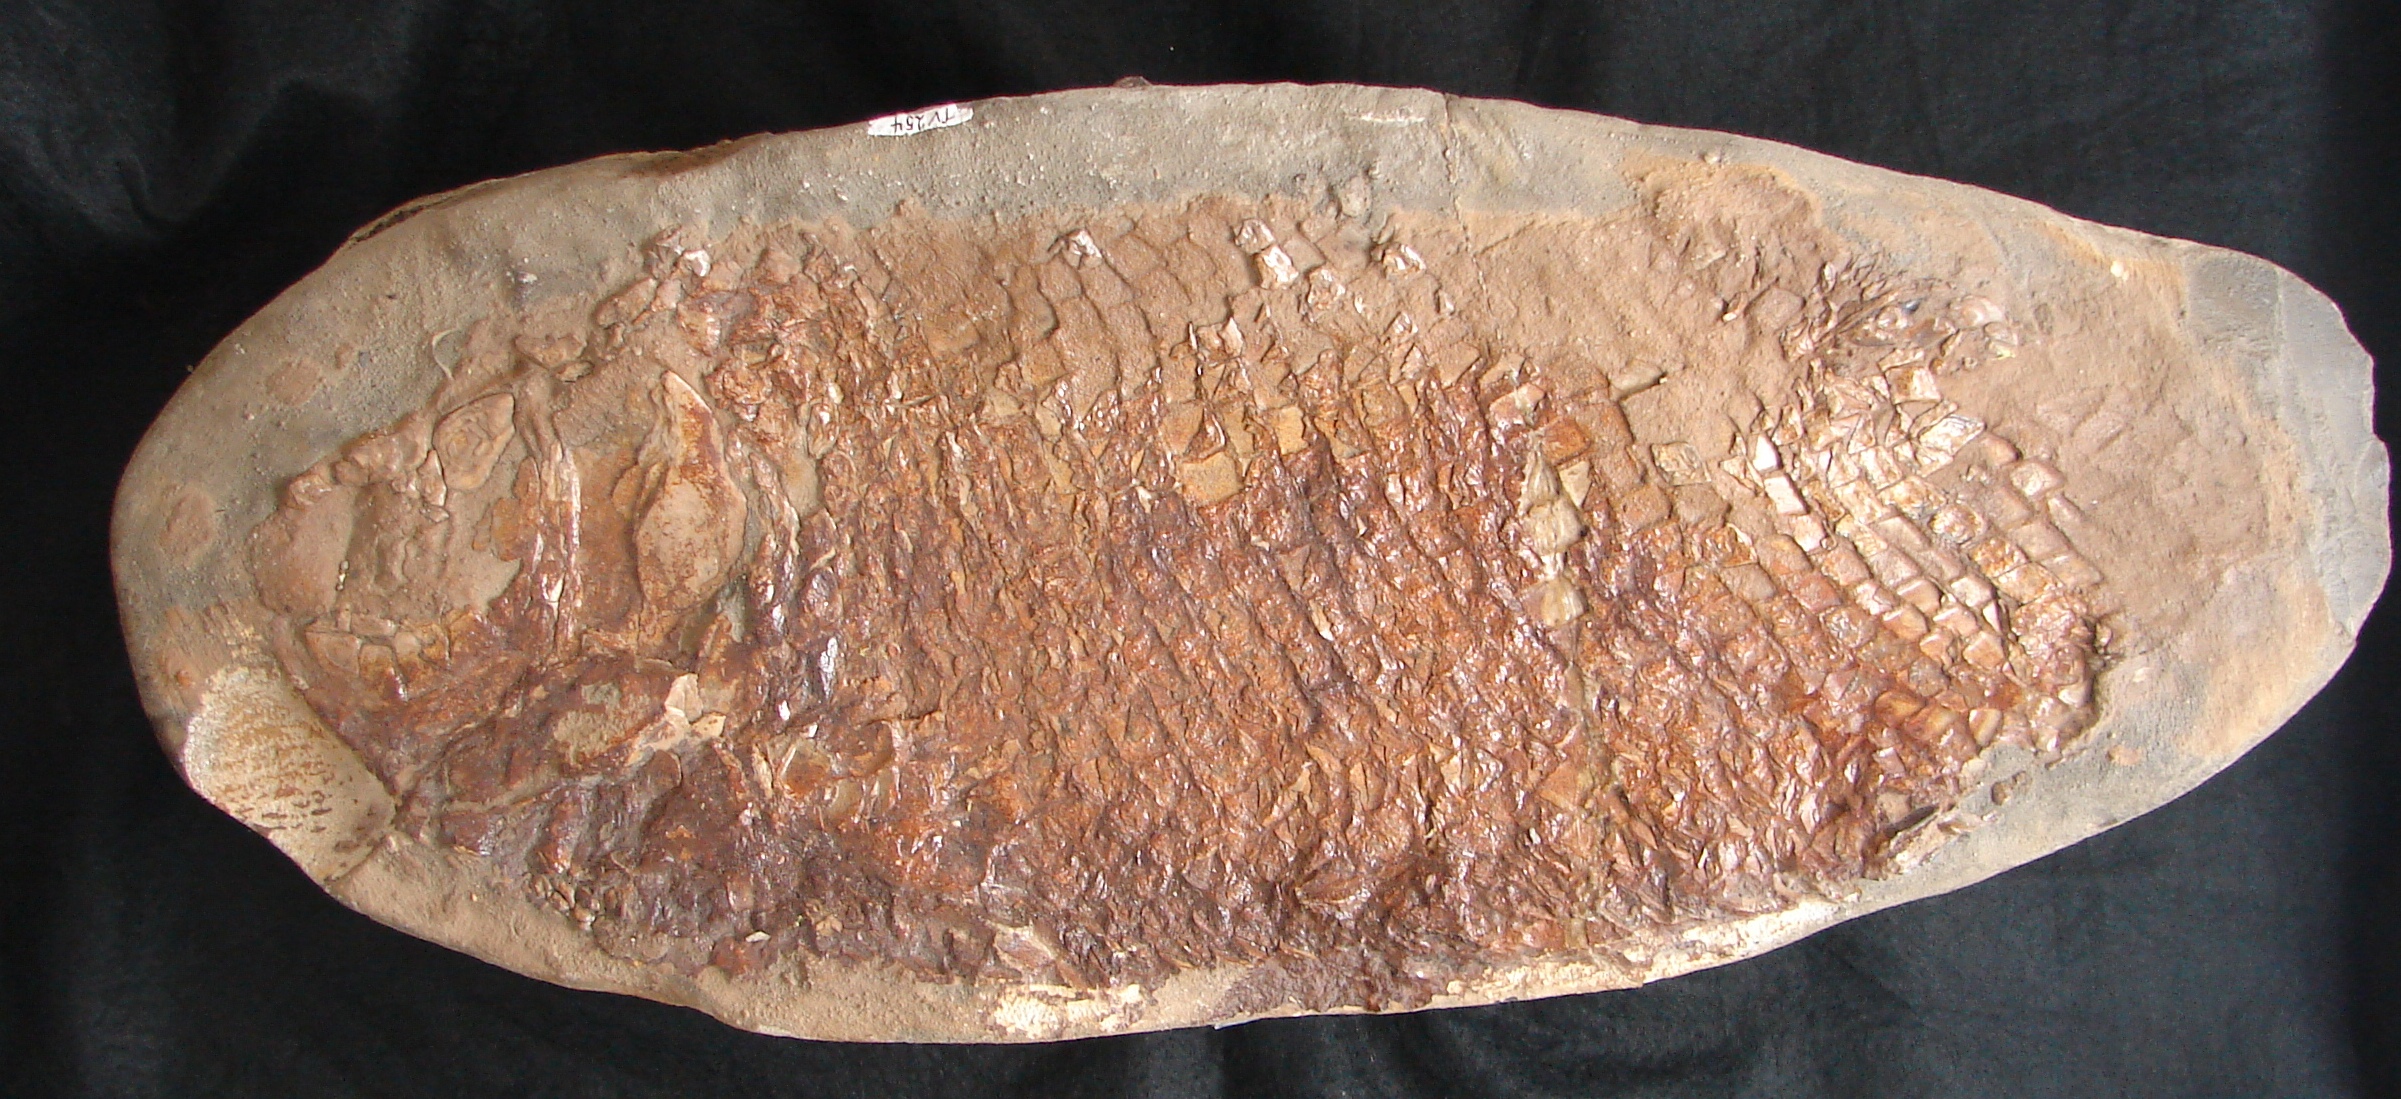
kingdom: Animalia
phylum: Chordata
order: Lepisosteiformes
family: Lepidotidae
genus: Lepidotes
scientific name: Lepidotes
